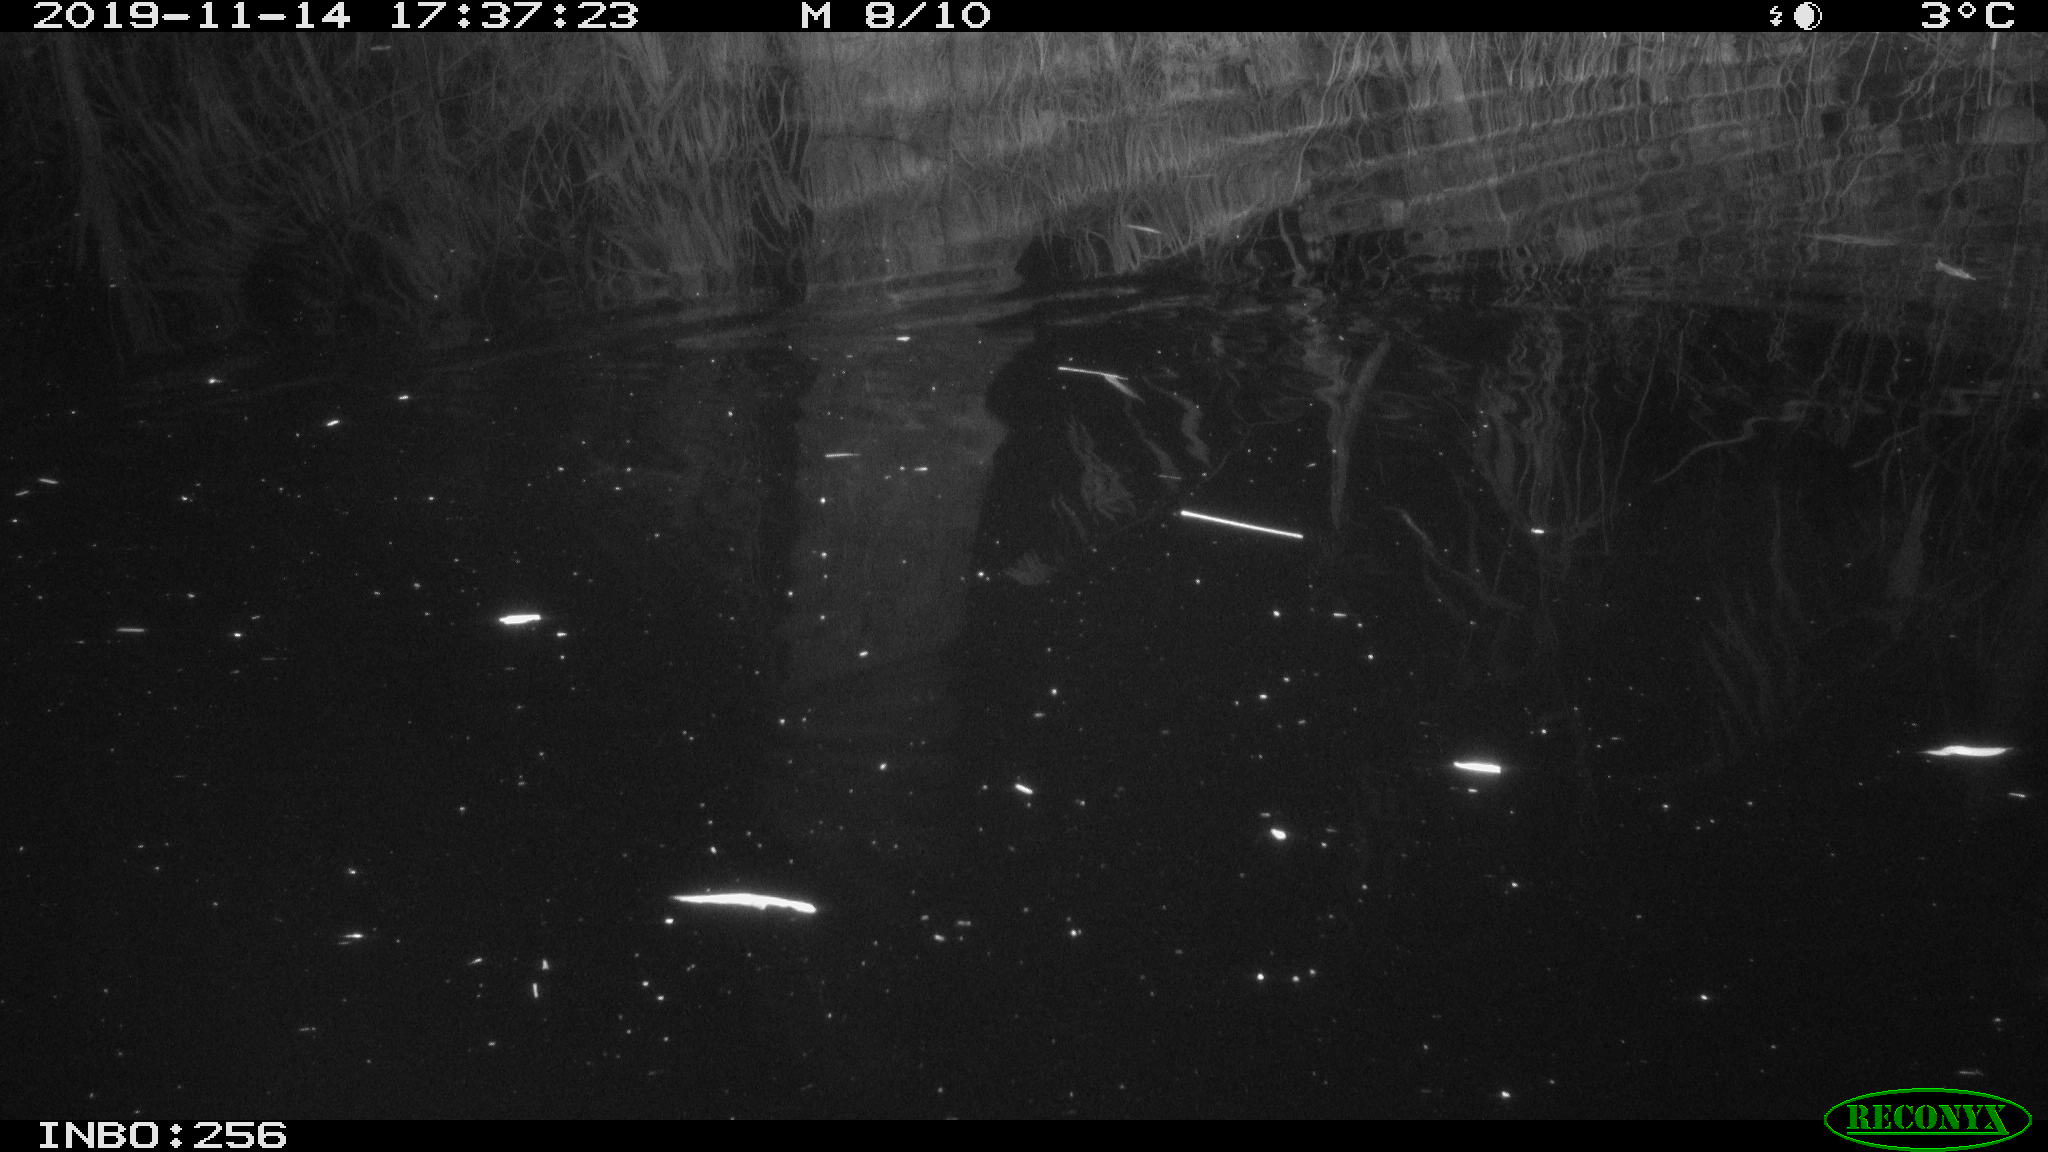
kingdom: Animalia
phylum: Chordata
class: Mammalia
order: Rodentia
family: Muridae
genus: Rattus
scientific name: Rattus norvegicus
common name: Brown rat
